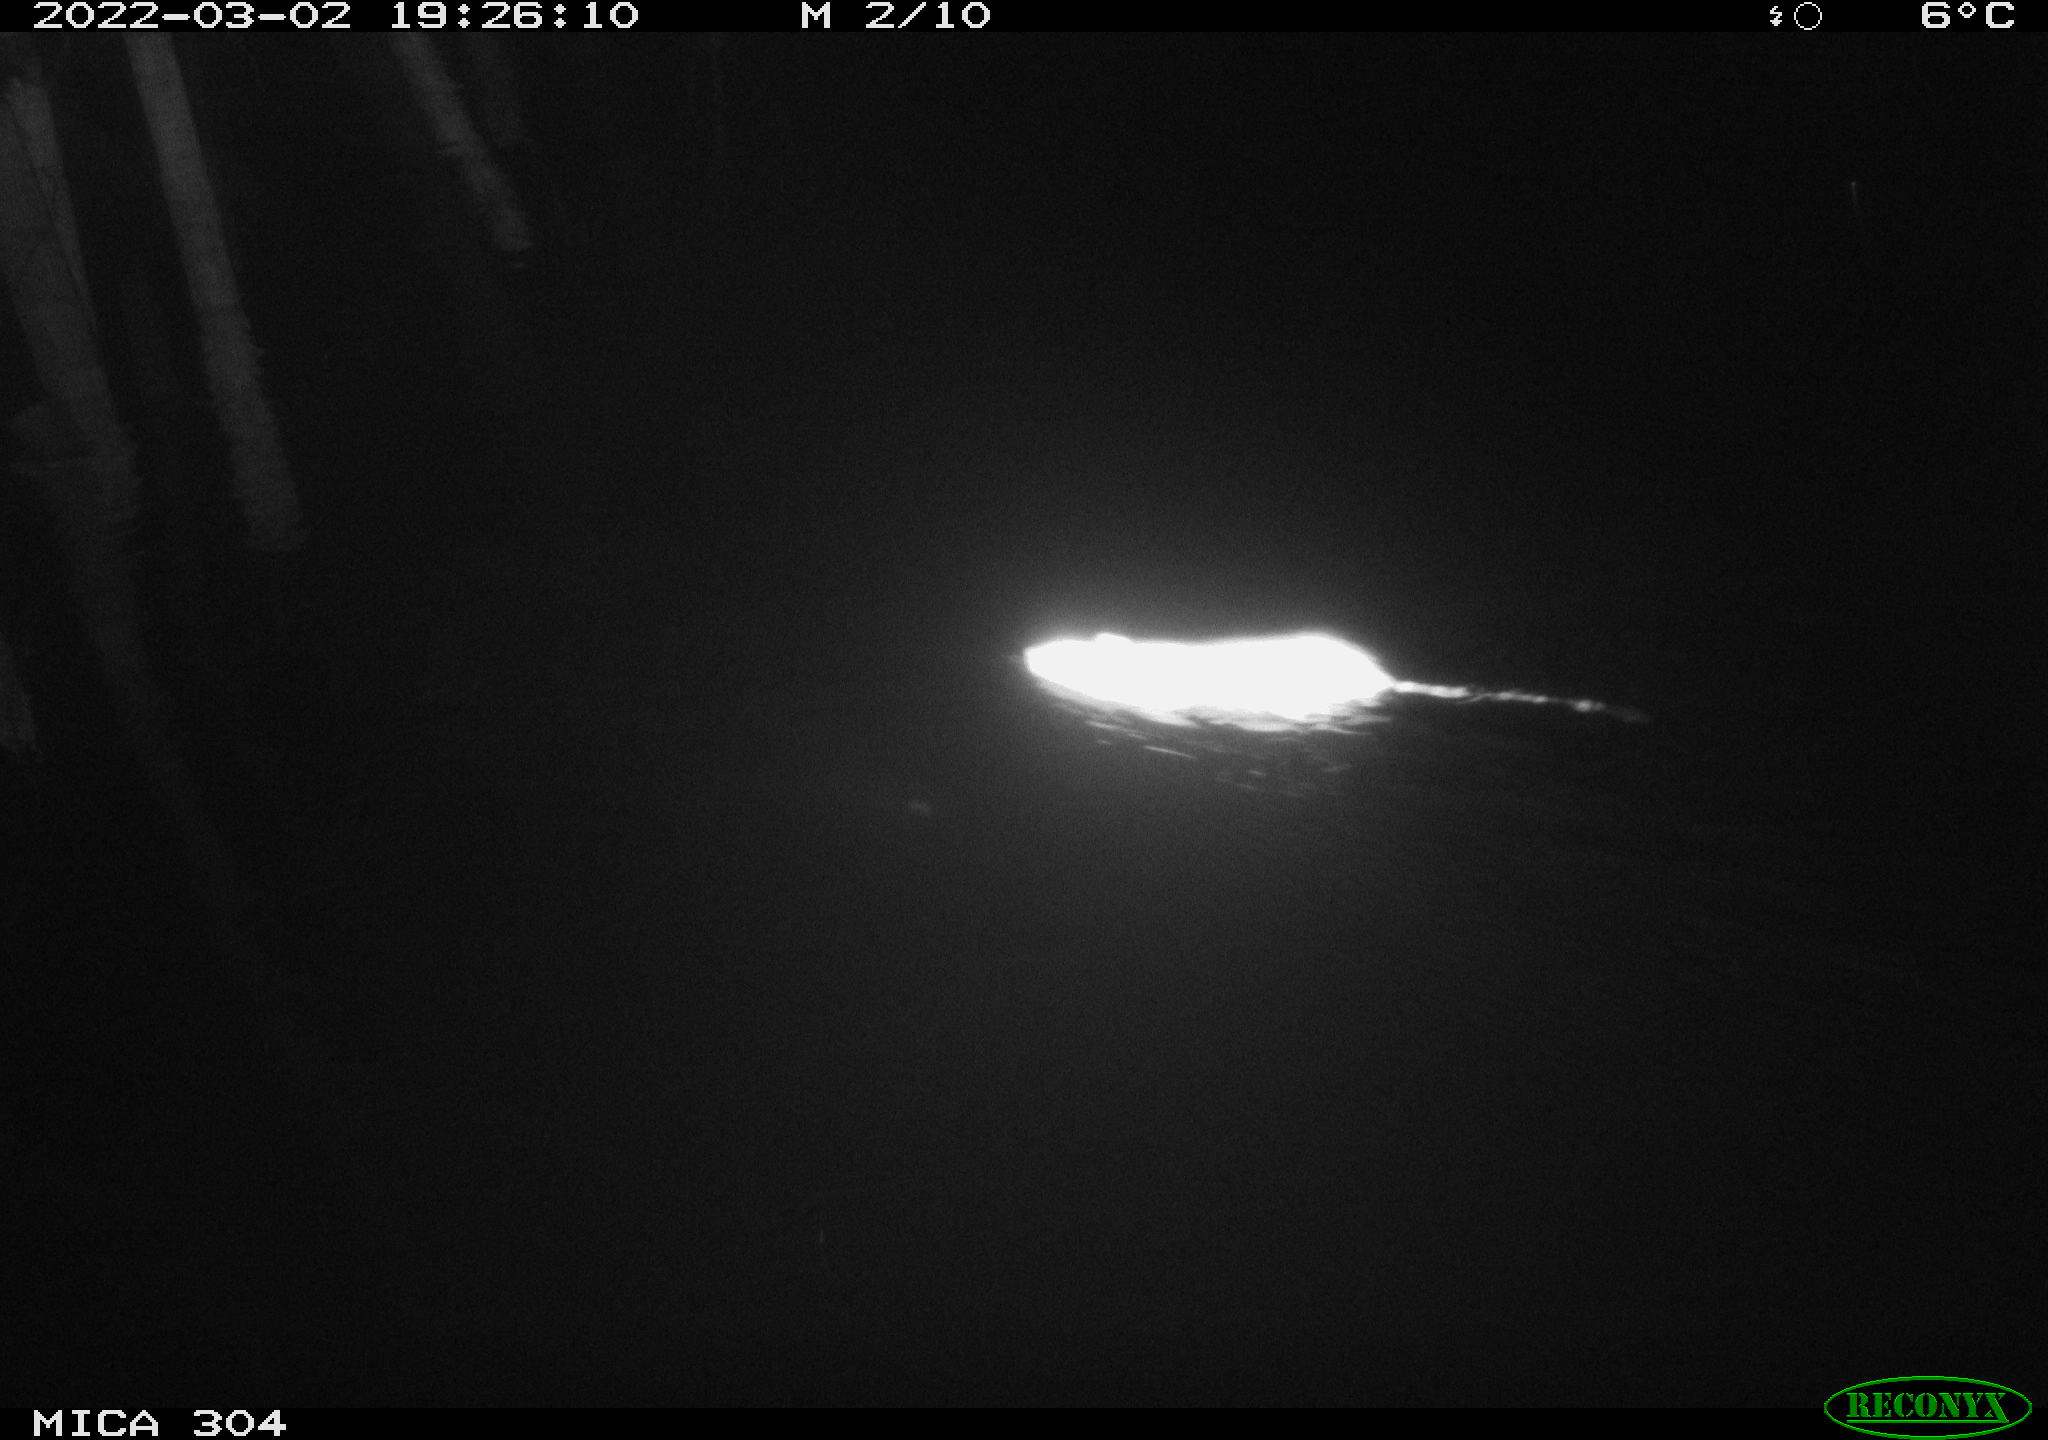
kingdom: Animalia
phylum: Chordata
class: Mammalia
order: Rodentia
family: Muridae
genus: Rattus
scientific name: Rattus norvegicus
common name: Brown rat
